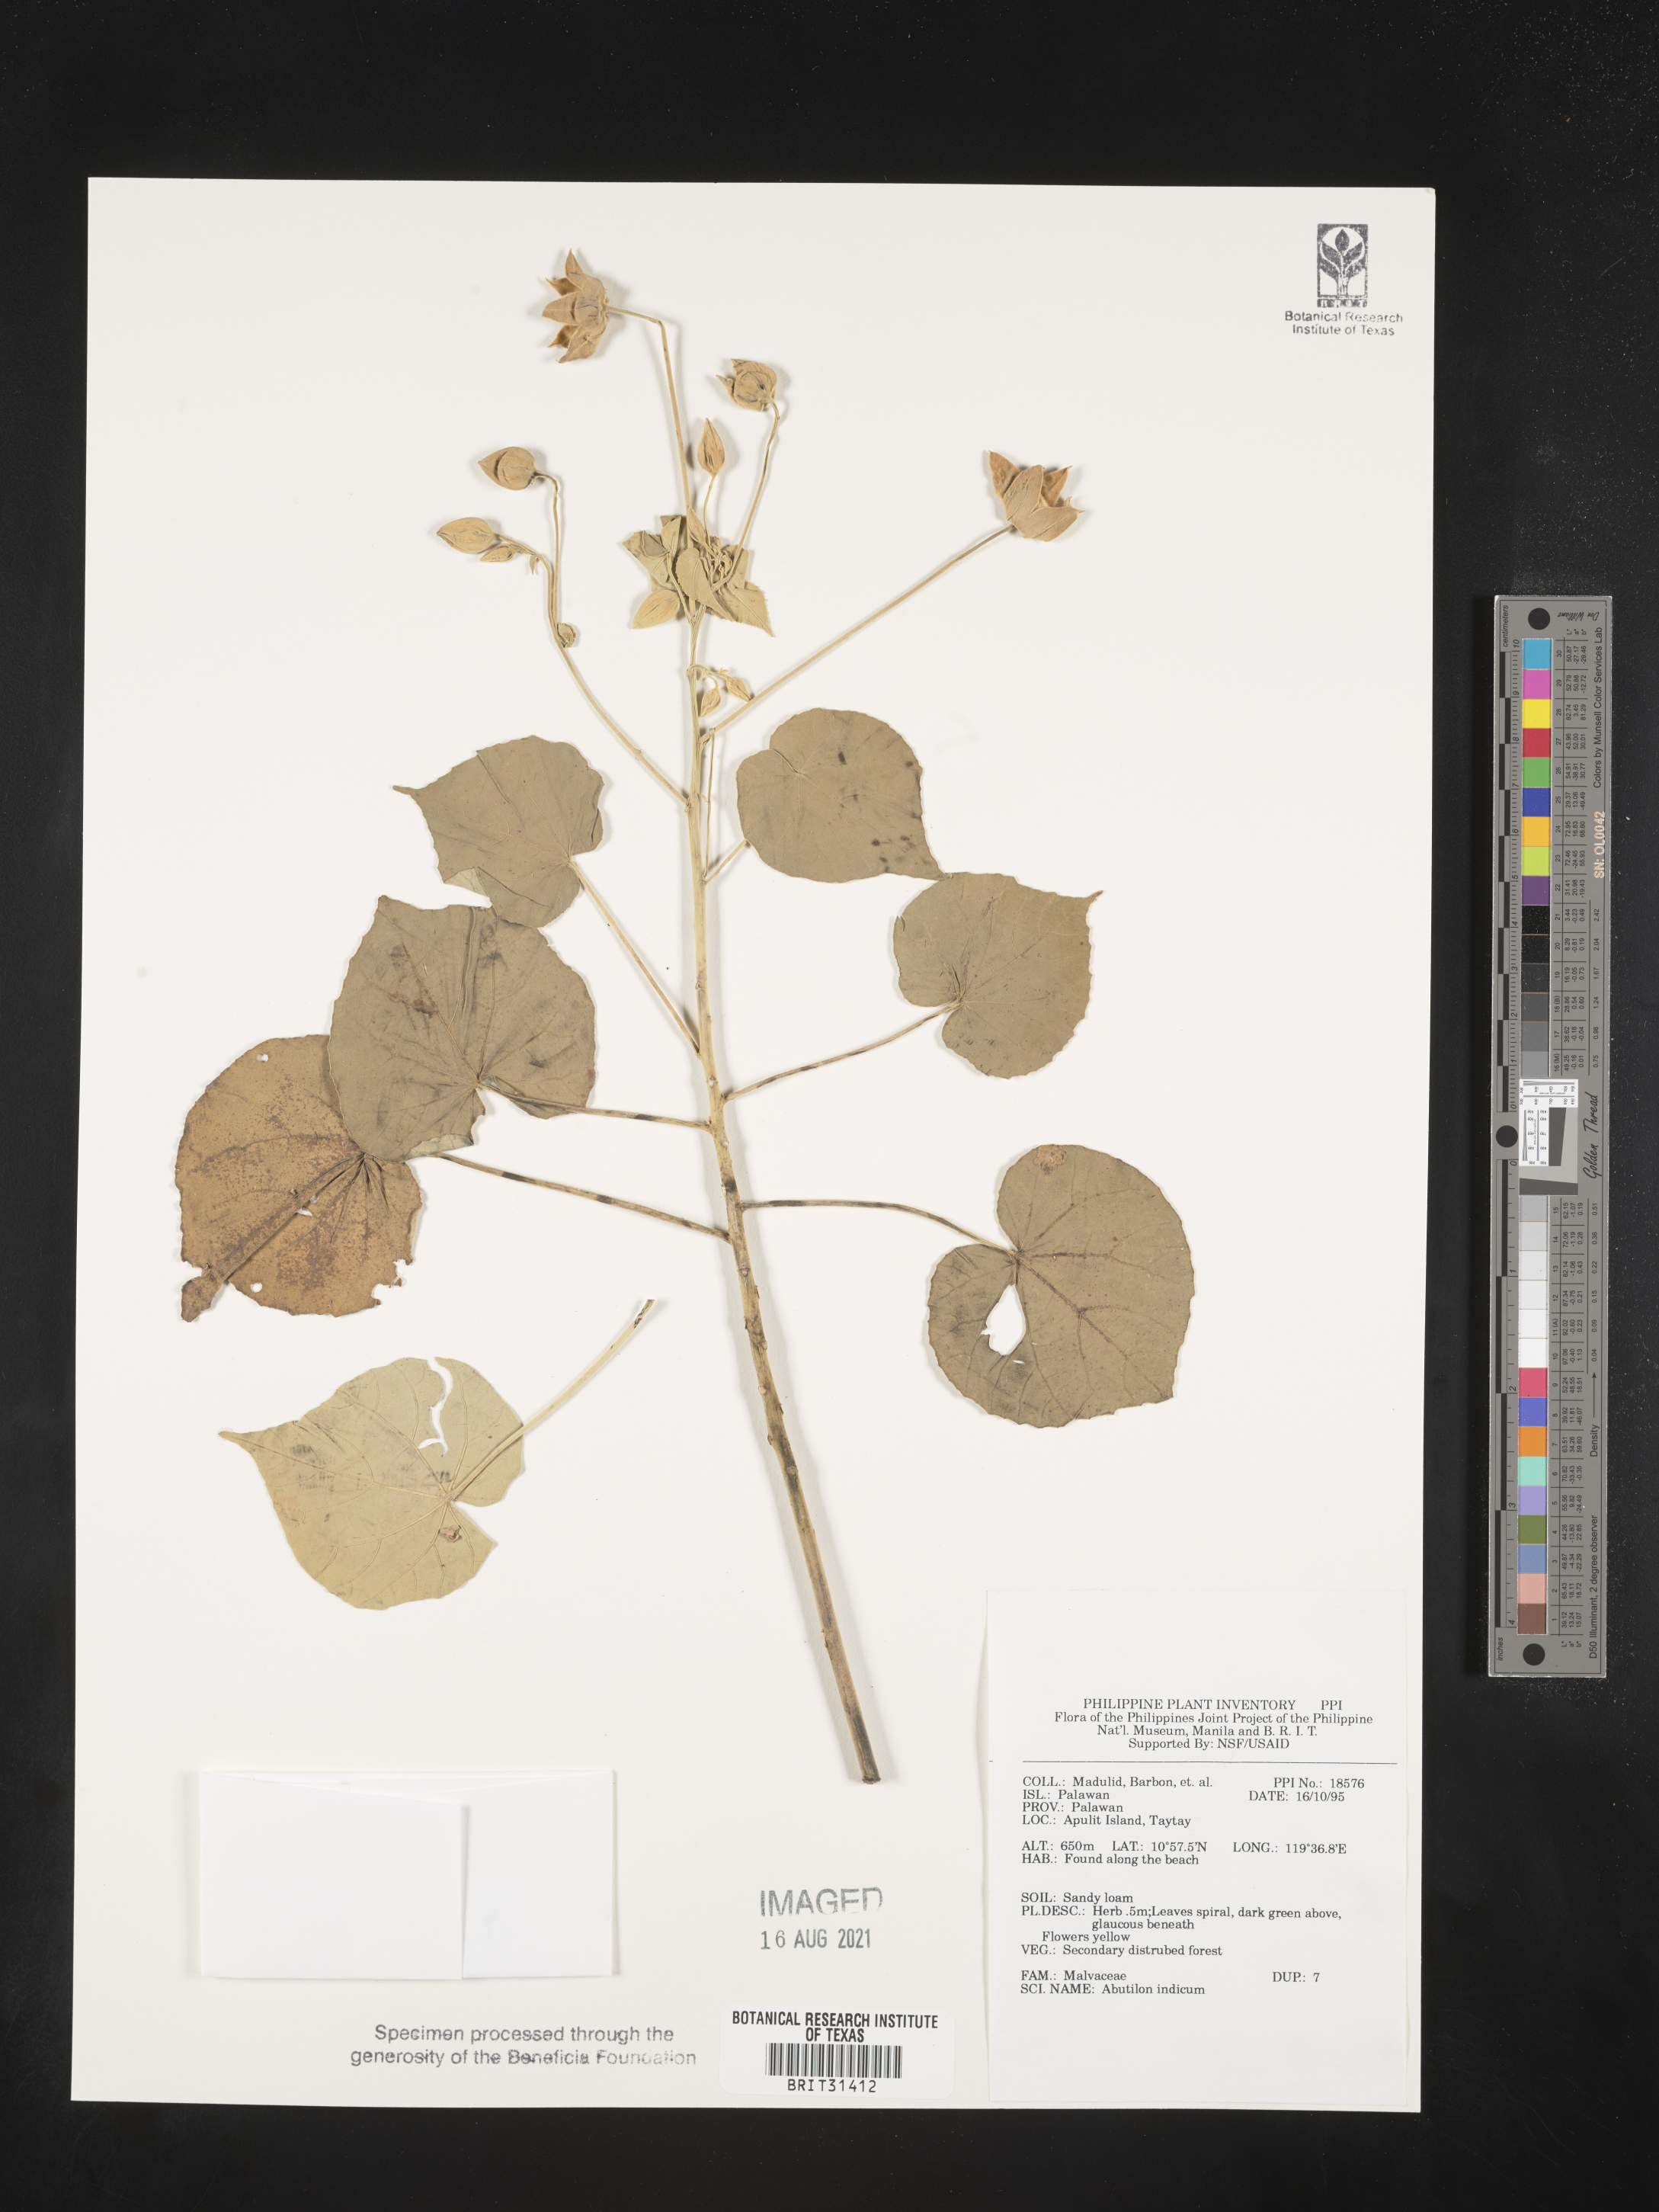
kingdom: Plantae
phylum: Tracheophyta
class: Magnoliopsida
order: Malvales
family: Malvaceae
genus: Abutilon
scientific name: Abutilon indicum
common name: Indian abutilon
